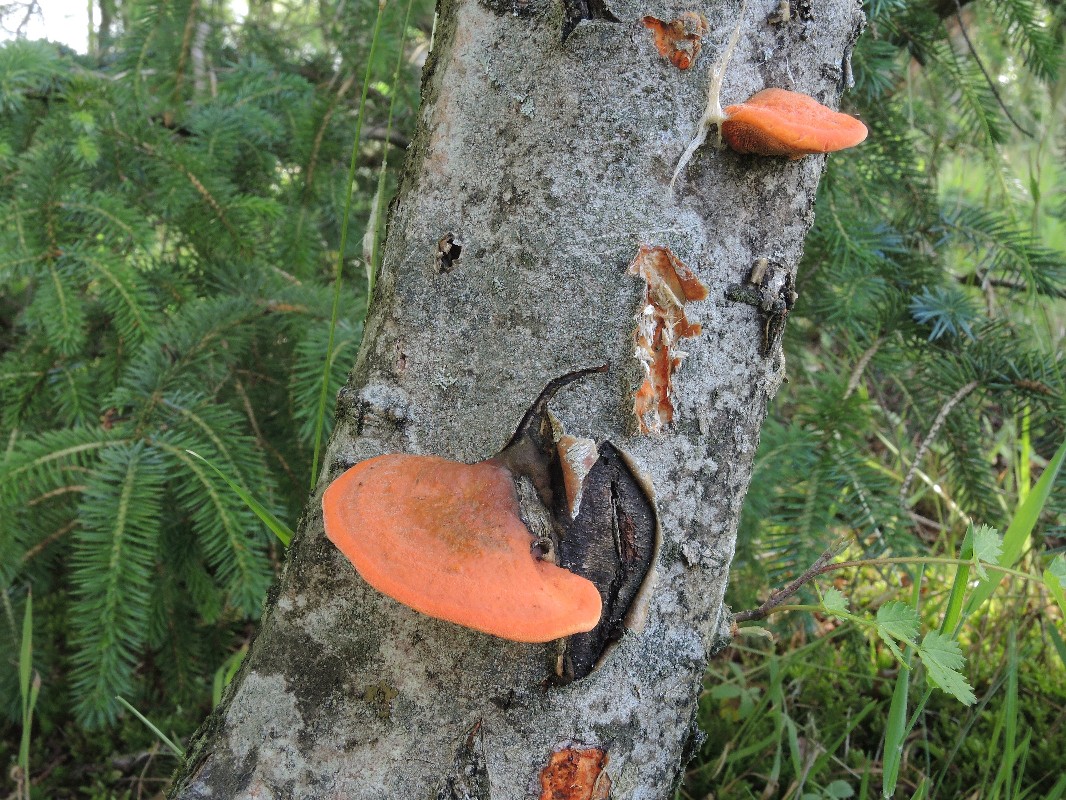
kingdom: Fungi
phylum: Basidiomycota
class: Agaricomycetes
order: Polyporales
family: Polyporaceae
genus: Trametes
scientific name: Trametes cinnabarina
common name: cinnoberporesvamp
